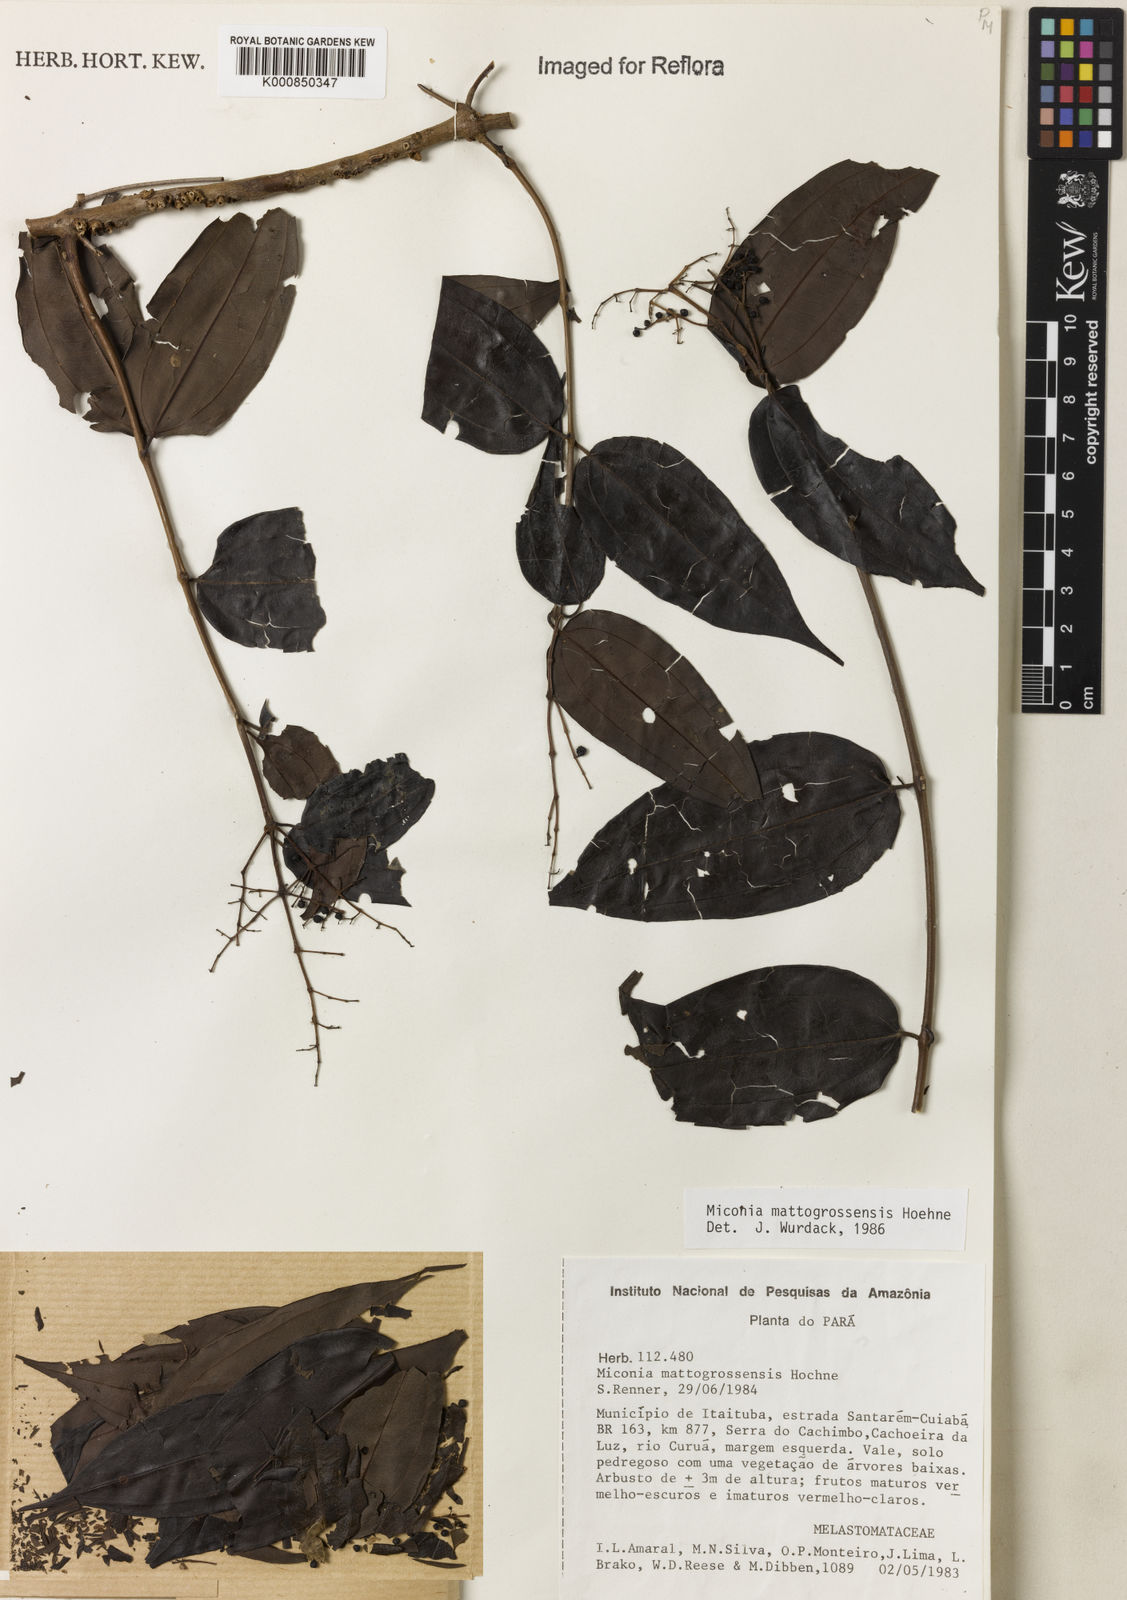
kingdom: Plantae
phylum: Tracheophyta
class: Magnoliopsida
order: Myrtales
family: Melastomataceae
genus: Miconia
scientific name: Miconia mattogrossensis
